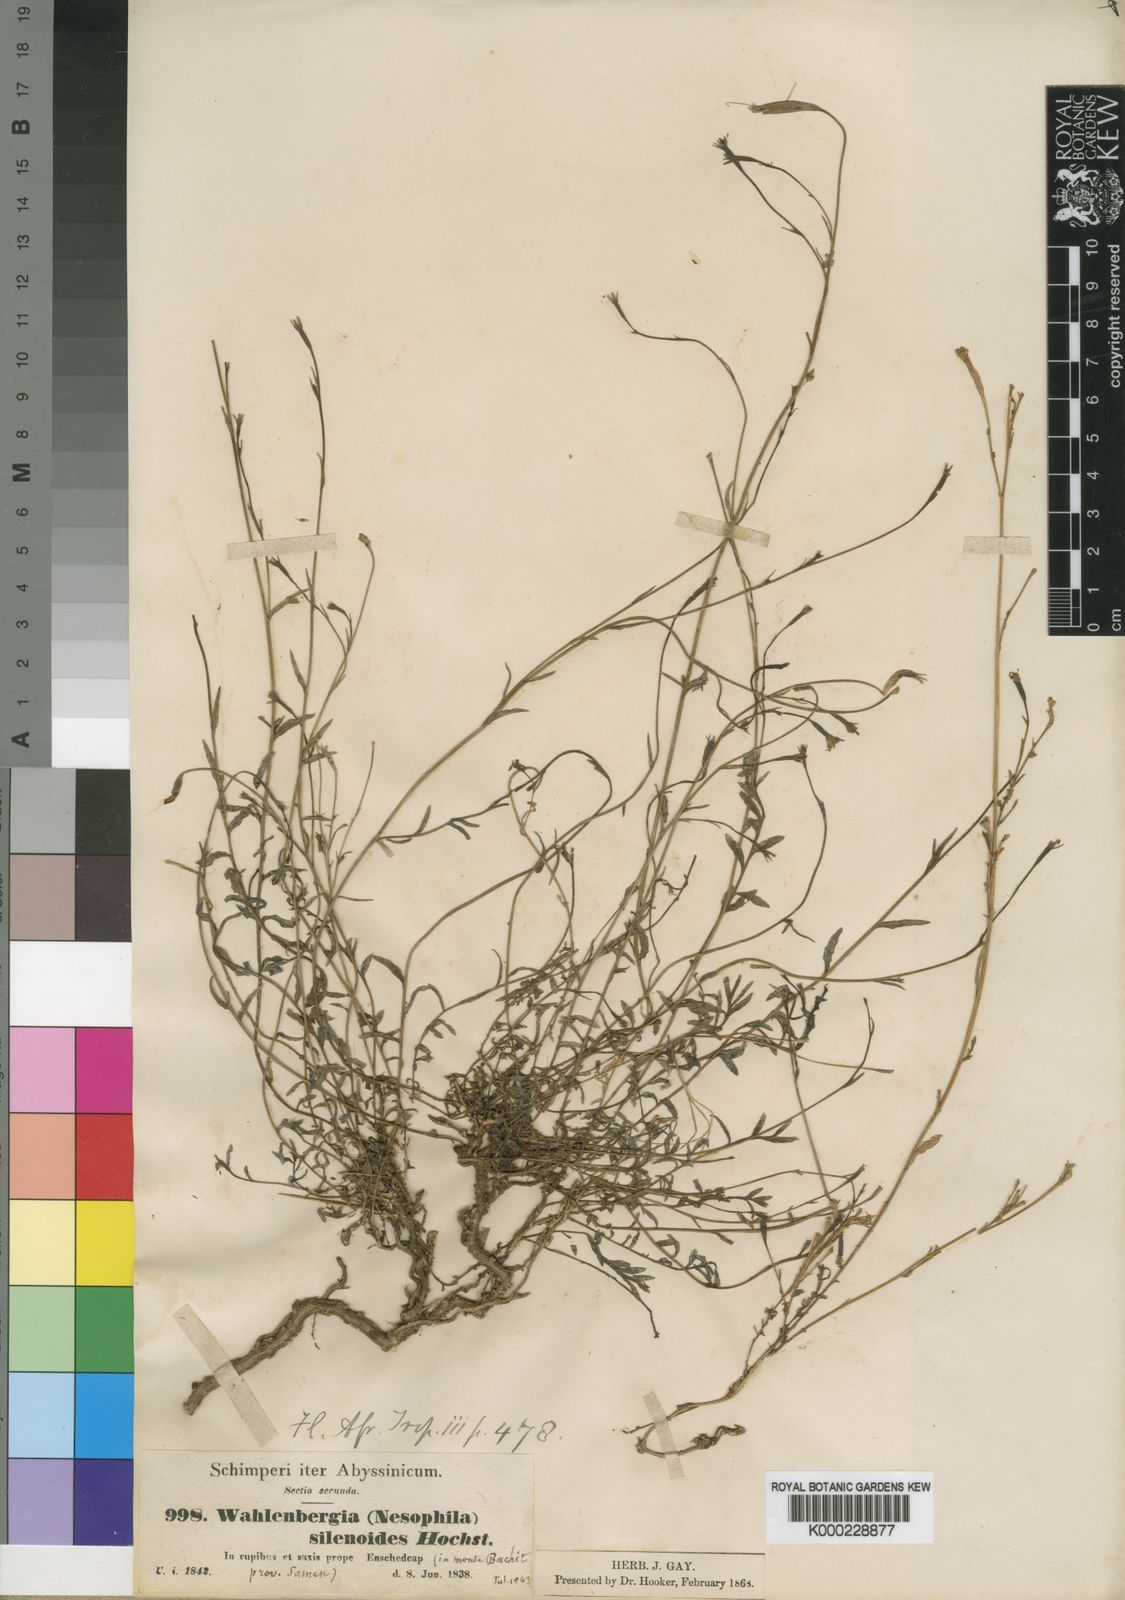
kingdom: Plantae
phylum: Tracheophyta
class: Magnoliopsida
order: Asterales
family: Campanulaceae
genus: Wahlenbergia
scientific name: Wahlenbergia silenoides
